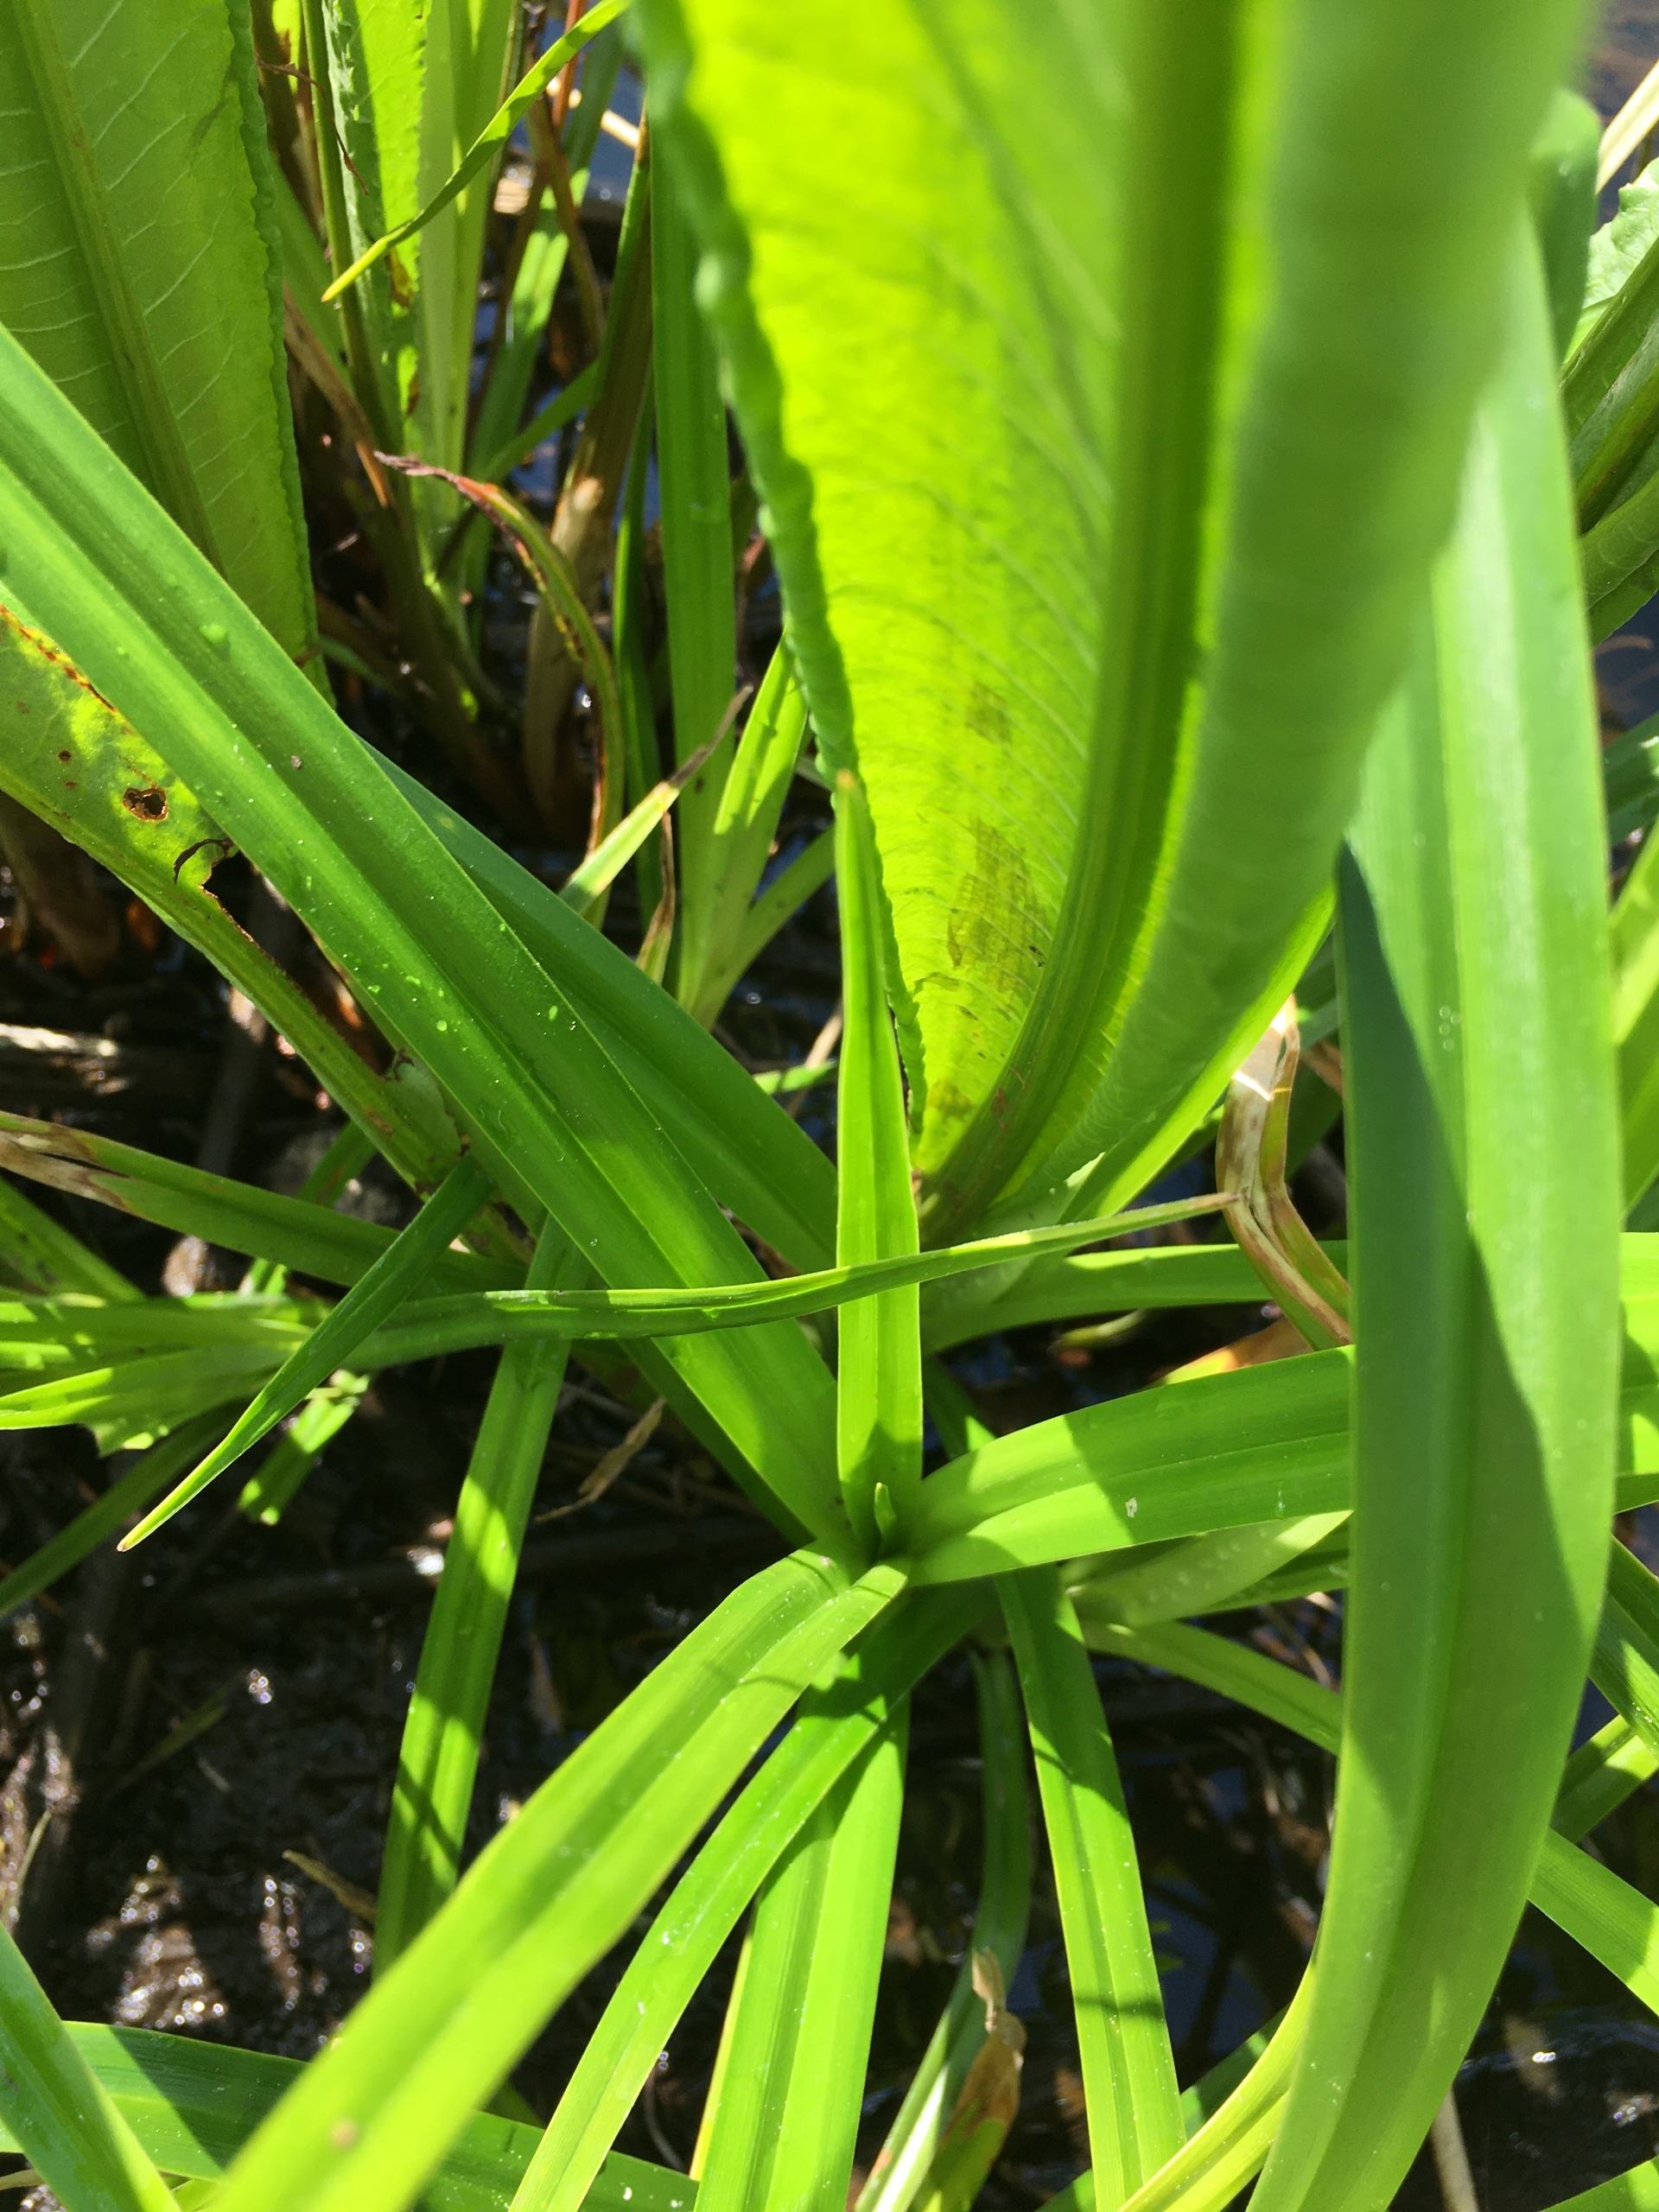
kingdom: Plantae
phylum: Tracheophyta
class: Liliopsida
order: Poales
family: Cyperaceae
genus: Scirpus
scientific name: Scirpus sylvaticus
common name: Skov-kogleaks
